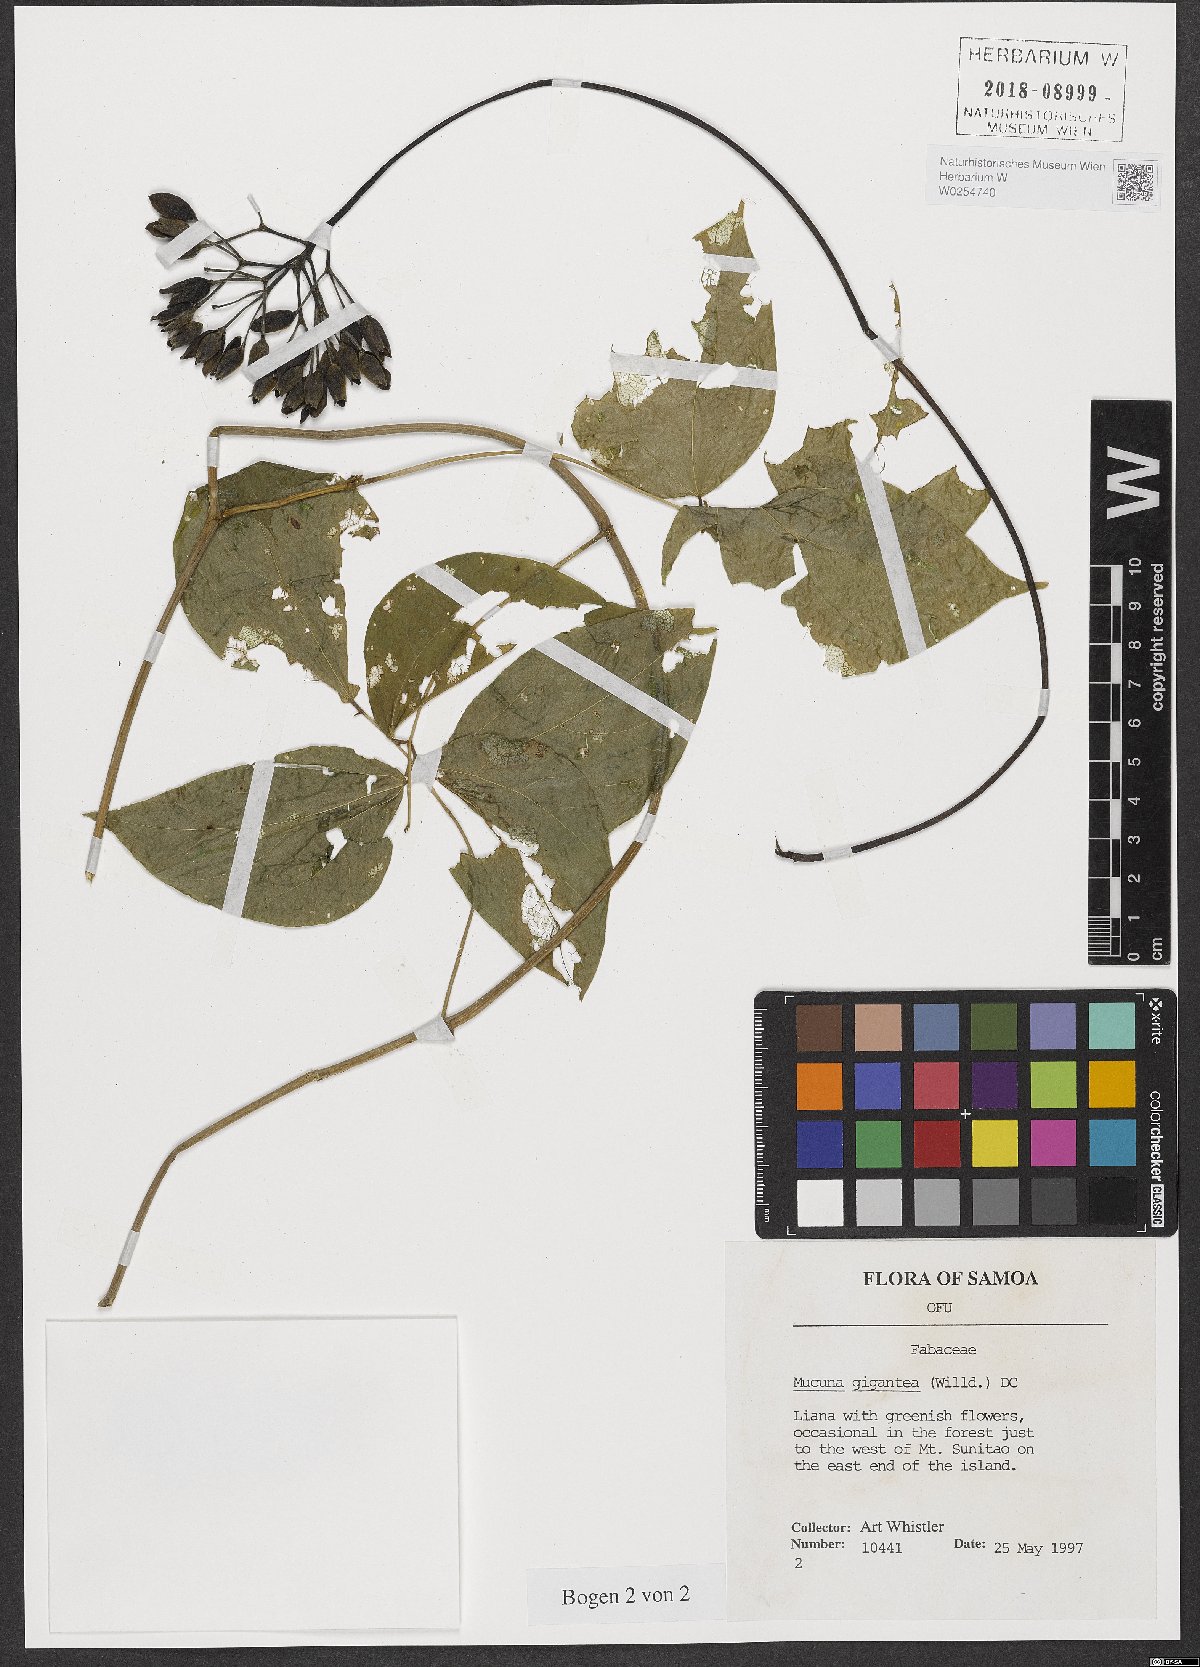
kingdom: Plantae
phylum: Tracheophyta
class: Magnoliopsida
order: Fabales
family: Fabaceae
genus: Mucuna
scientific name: Mucuna gigantea
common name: Black-bean
